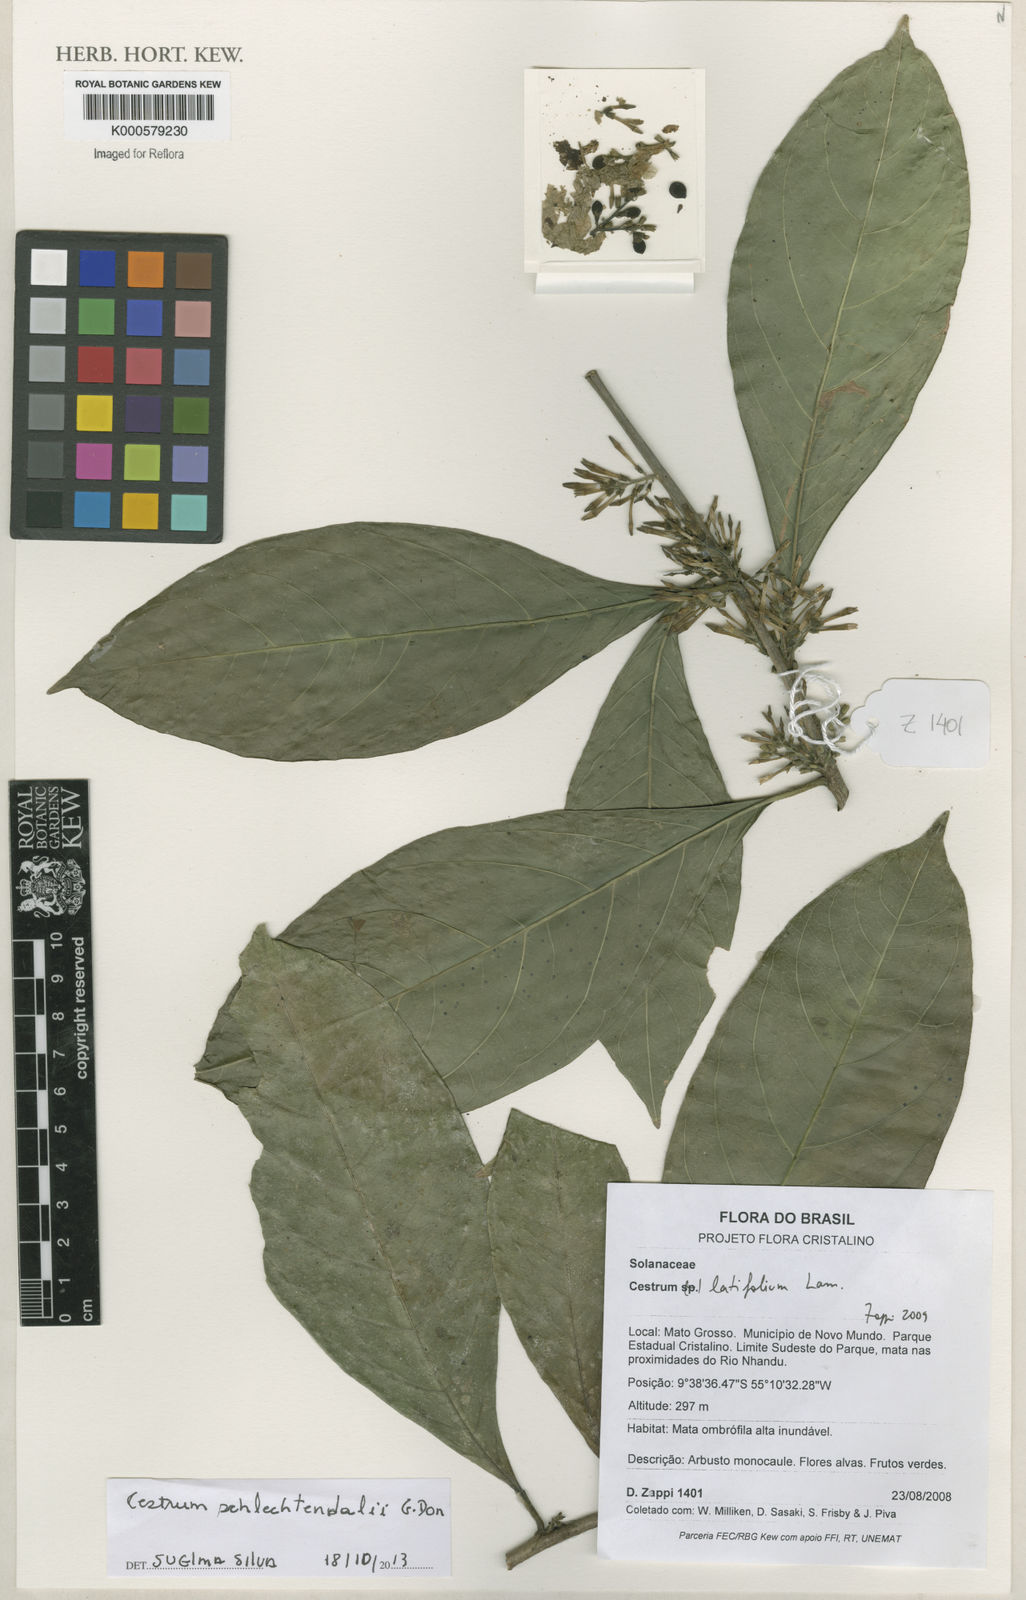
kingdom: Plantae
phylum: Tracheophyta
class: Magnoliopsida
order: Solanales
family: Solanaceae
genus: Cestrum
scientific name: Cestrum latifolium
